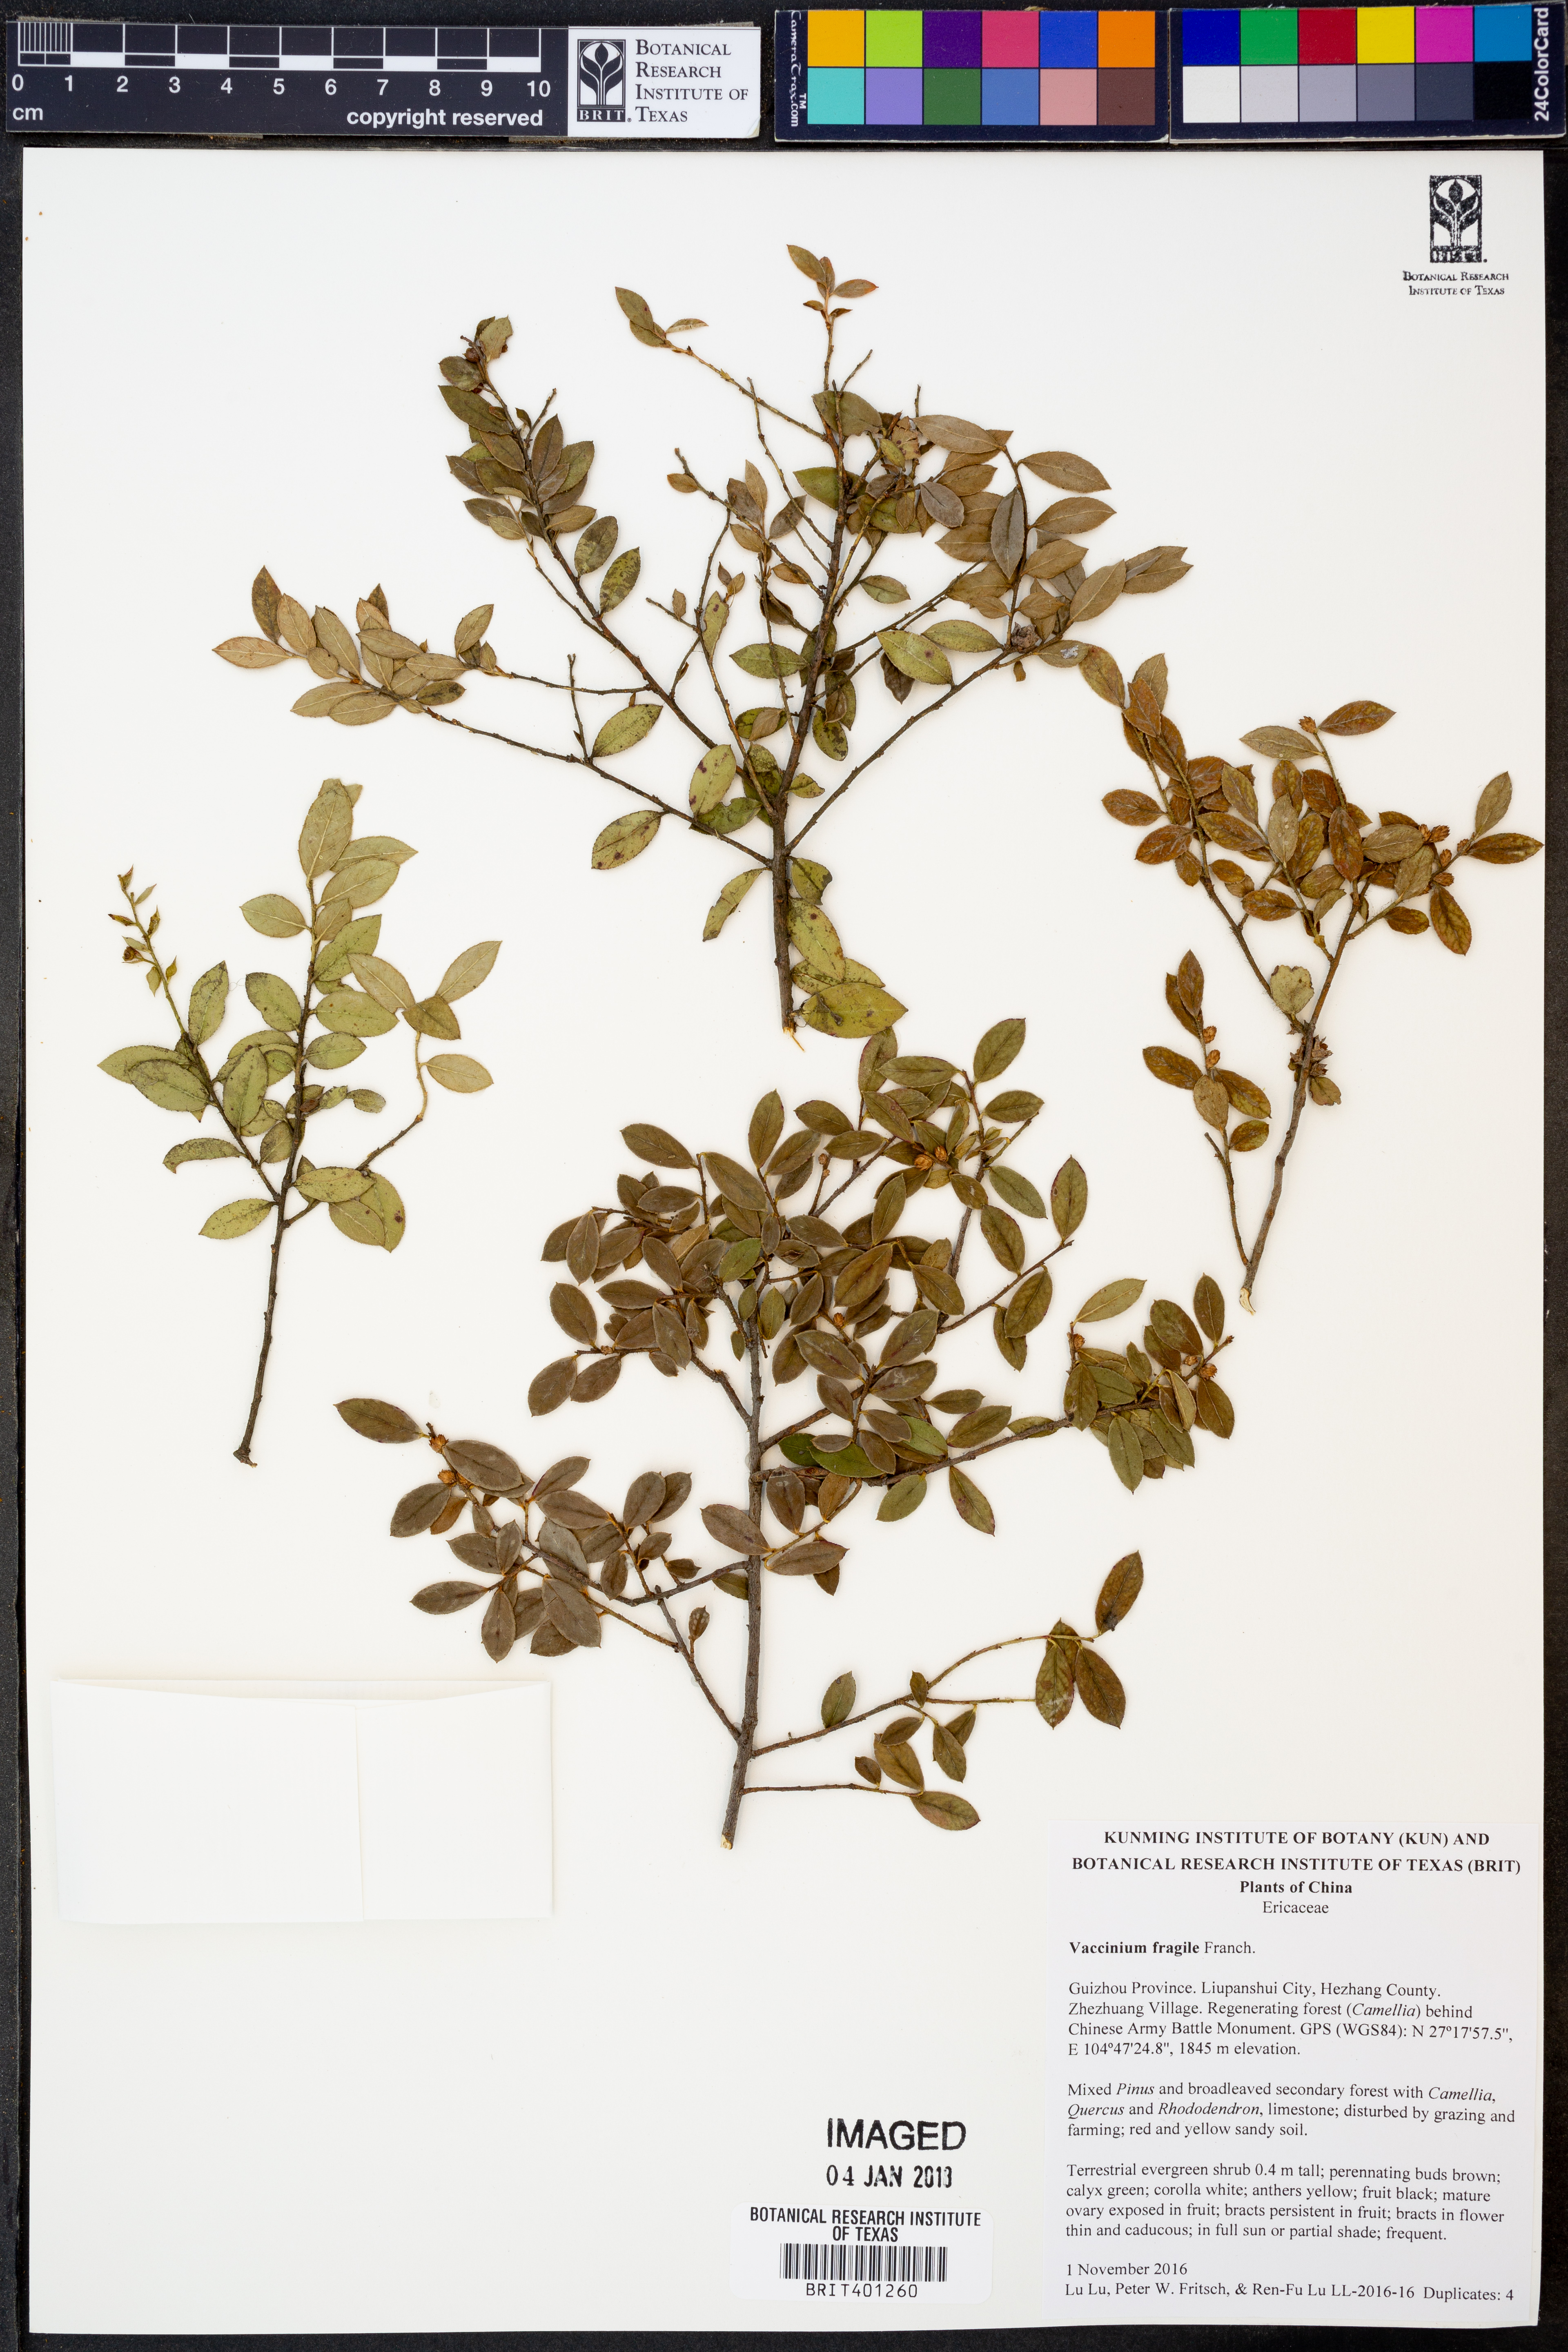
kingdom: Plantae
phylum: Tracheophyta
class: Magnoliopsida
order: Ericales
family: Ericaceae
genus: Vaccinium
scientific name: Vaccinium fragile
